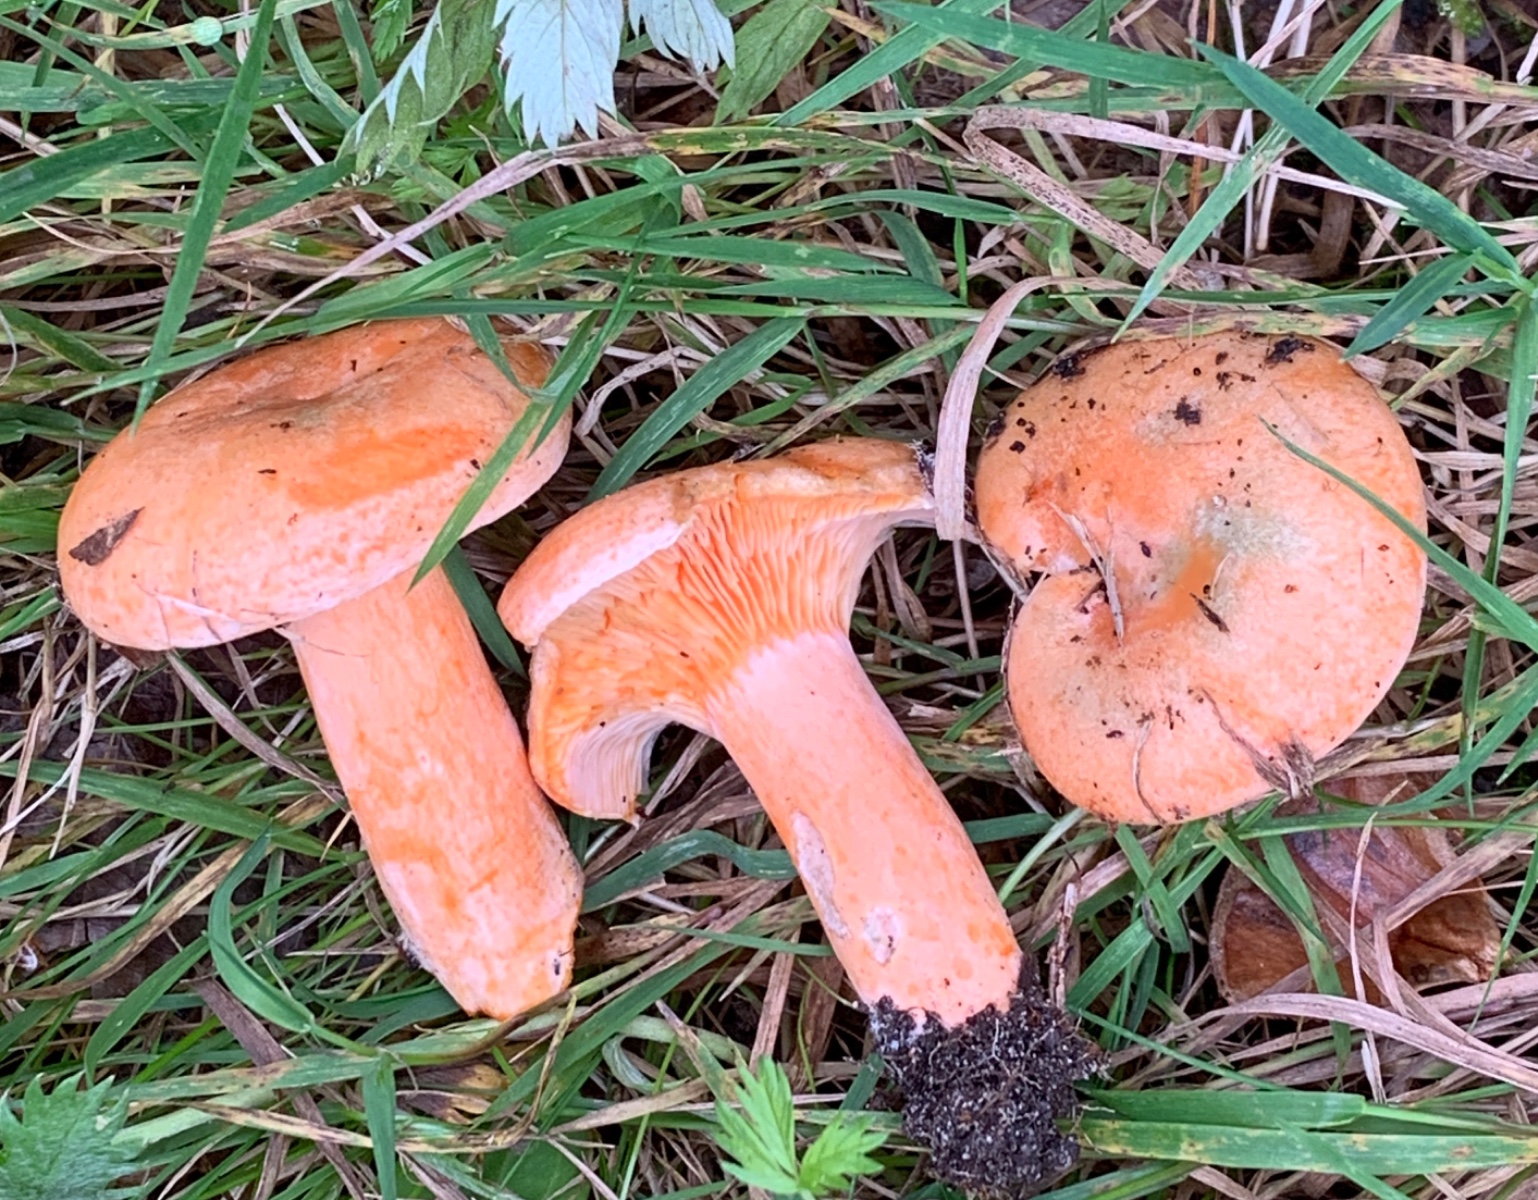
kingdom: Fungi
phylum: Basidiomycota
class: Agaricomycetes
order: Russulales
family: Russulaceae
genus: Lactarius
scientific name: Lactarius deterrimus
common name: gran-mælkehat
